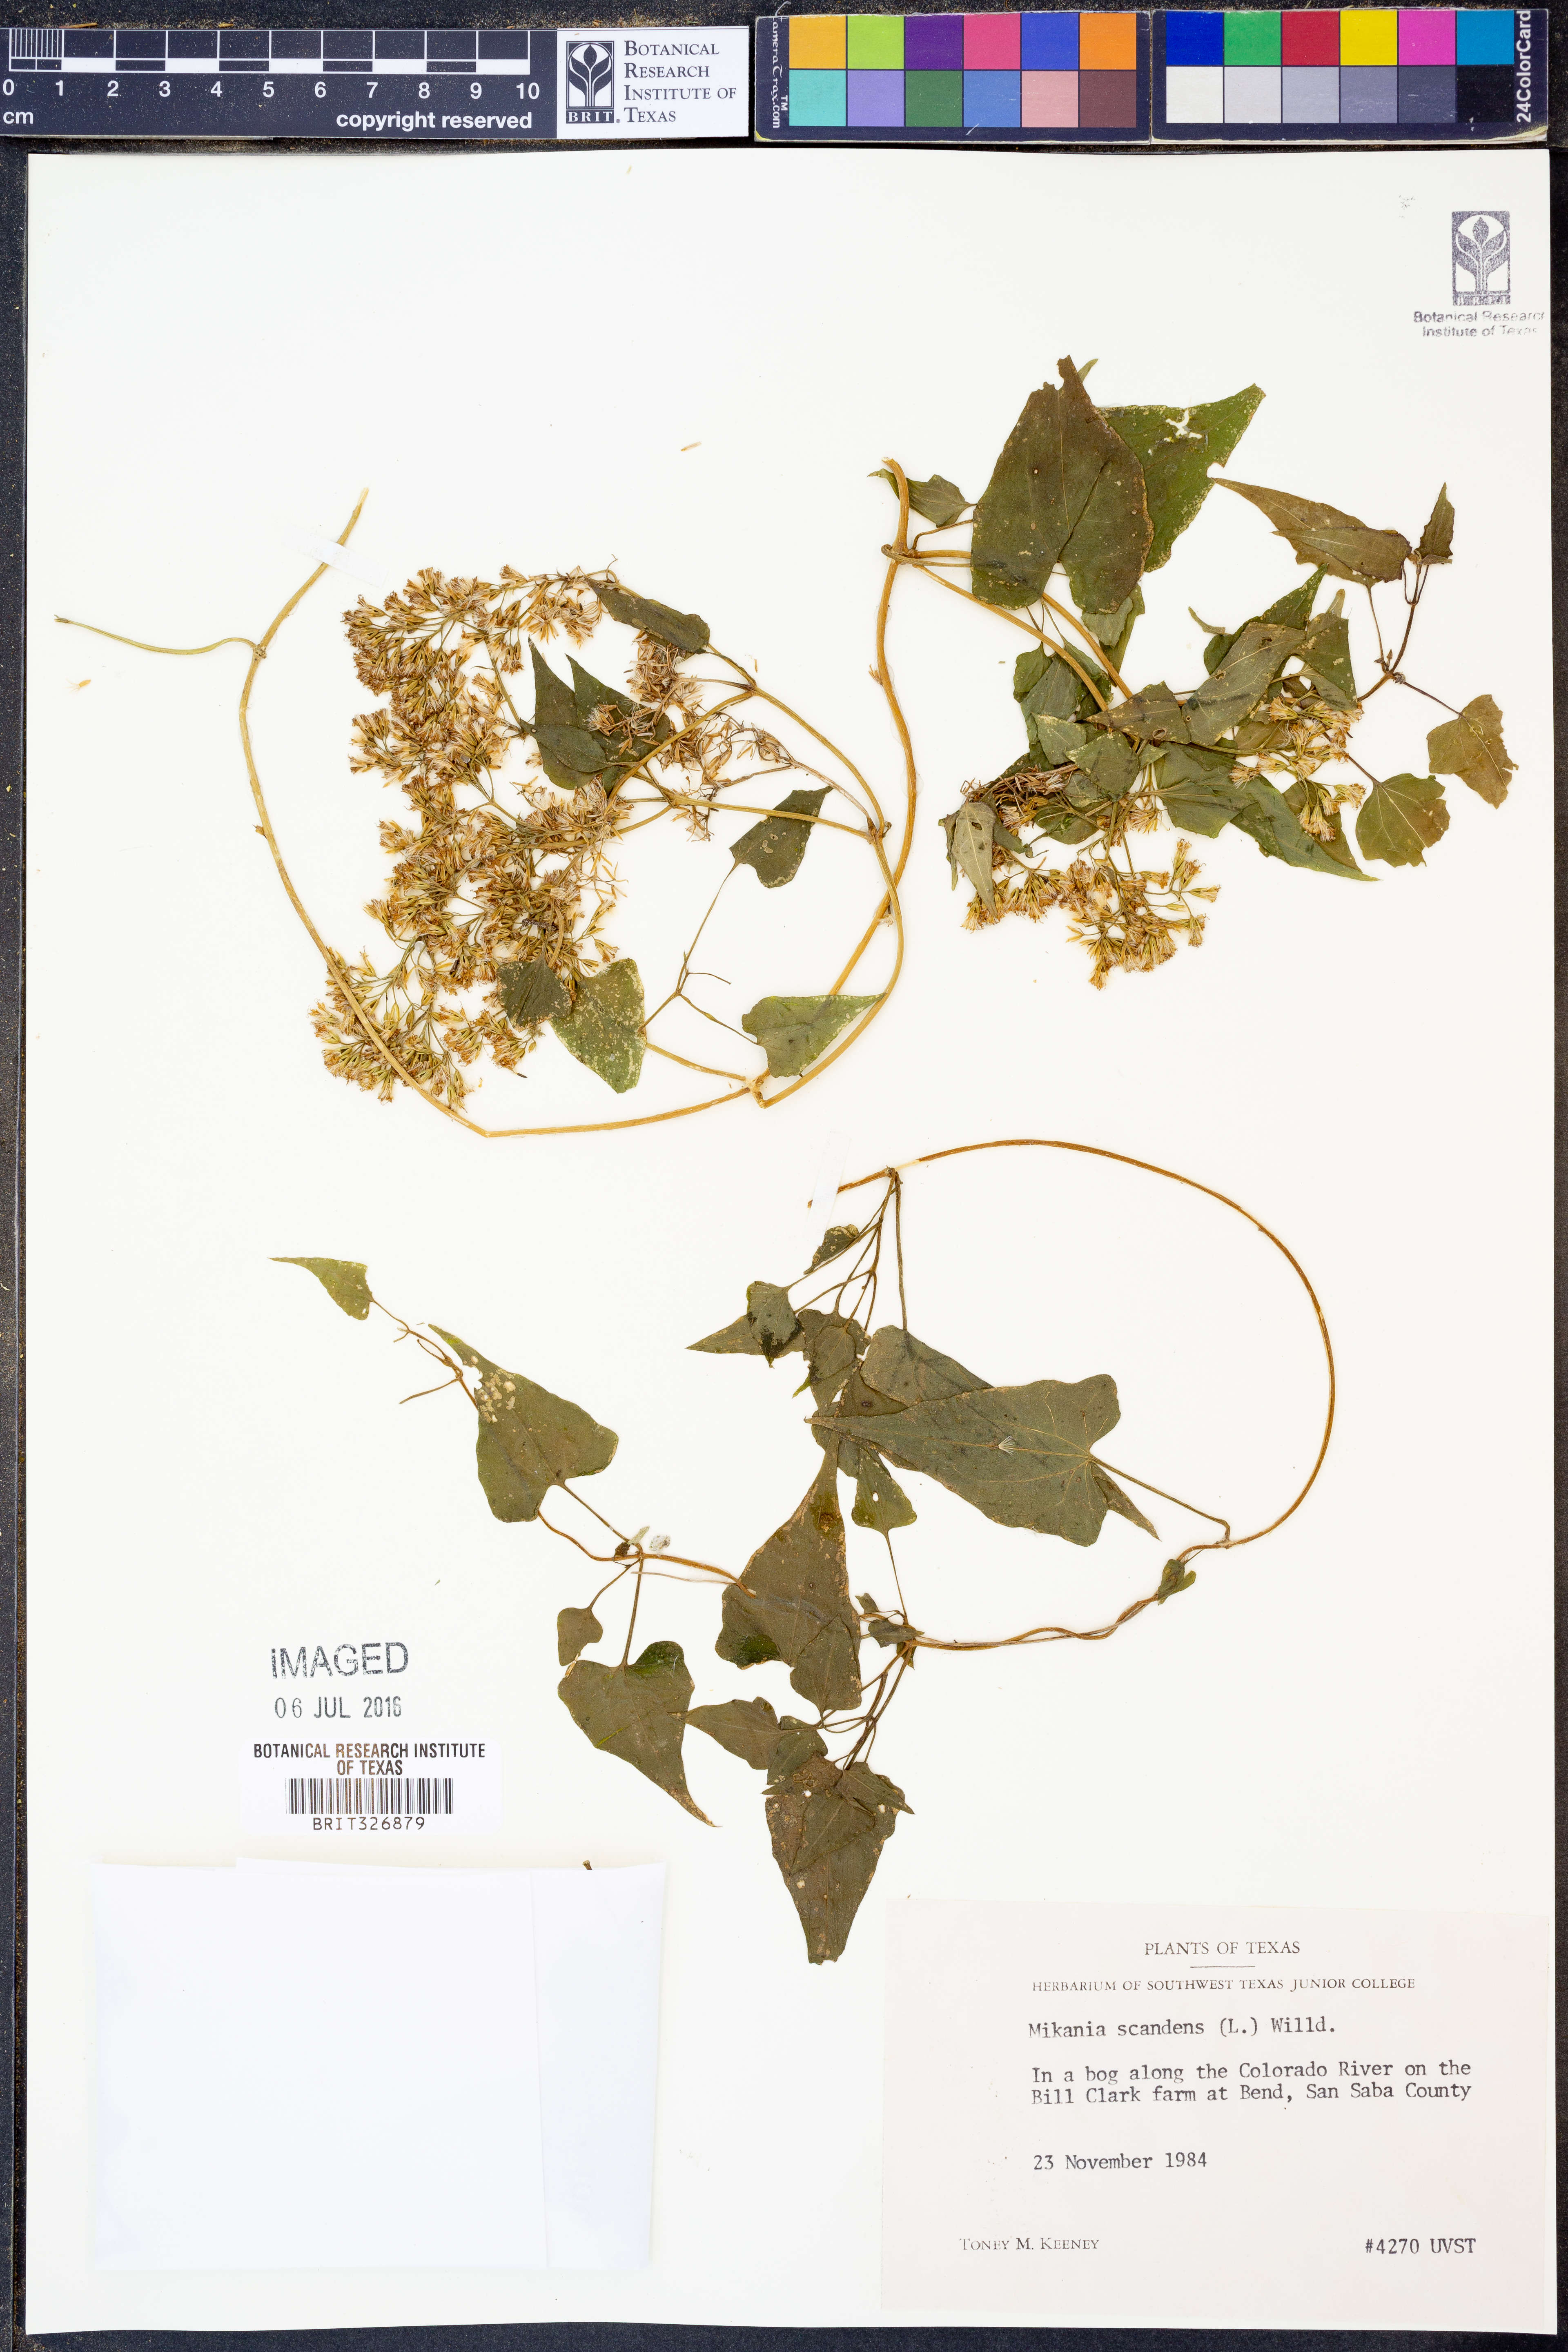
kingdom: Plantae
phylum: Tracheophyta
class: Magnoliopsida
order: Asterales
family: Asteraceae
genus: Mikania
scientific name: Mikania scandens
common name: Climbing hempvine
